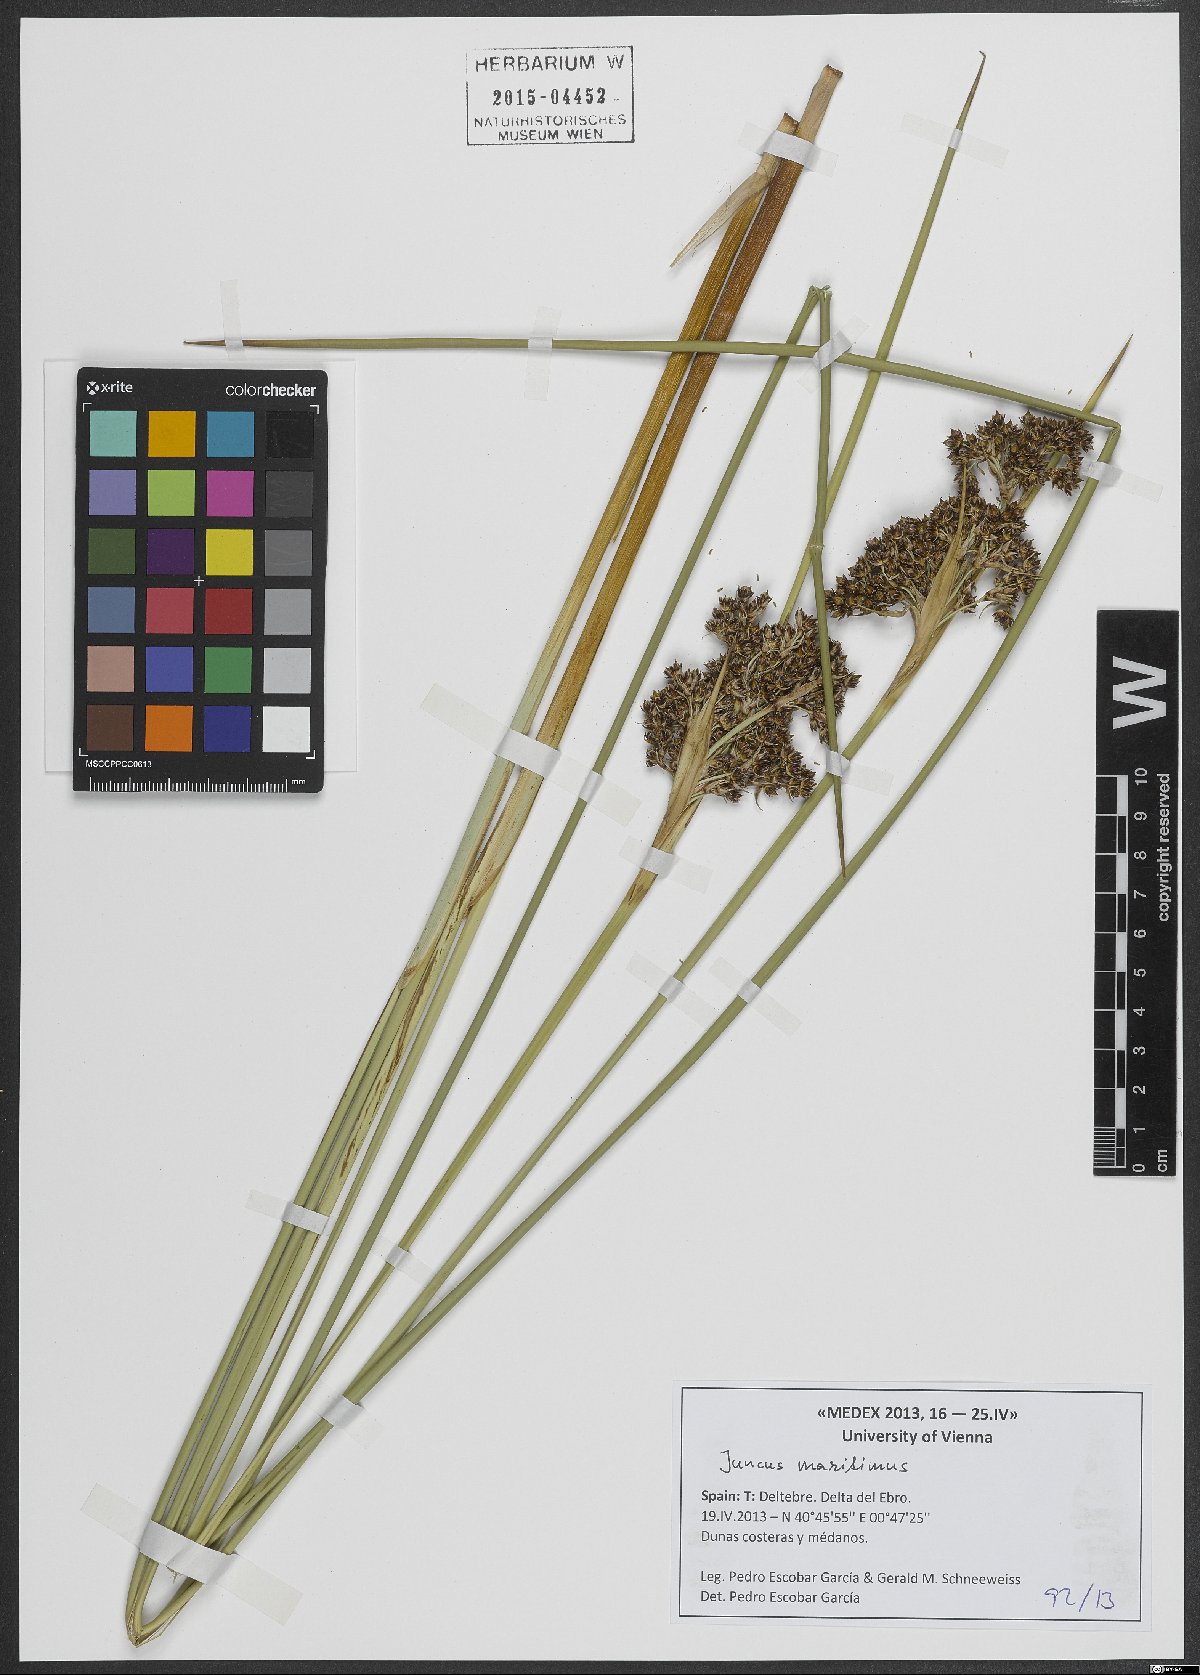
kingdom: Plantae
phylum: Tracheophyta
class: Liliopsida
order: Poales
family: Juncaceae
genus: Juncus
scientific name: Juncus littoralis
